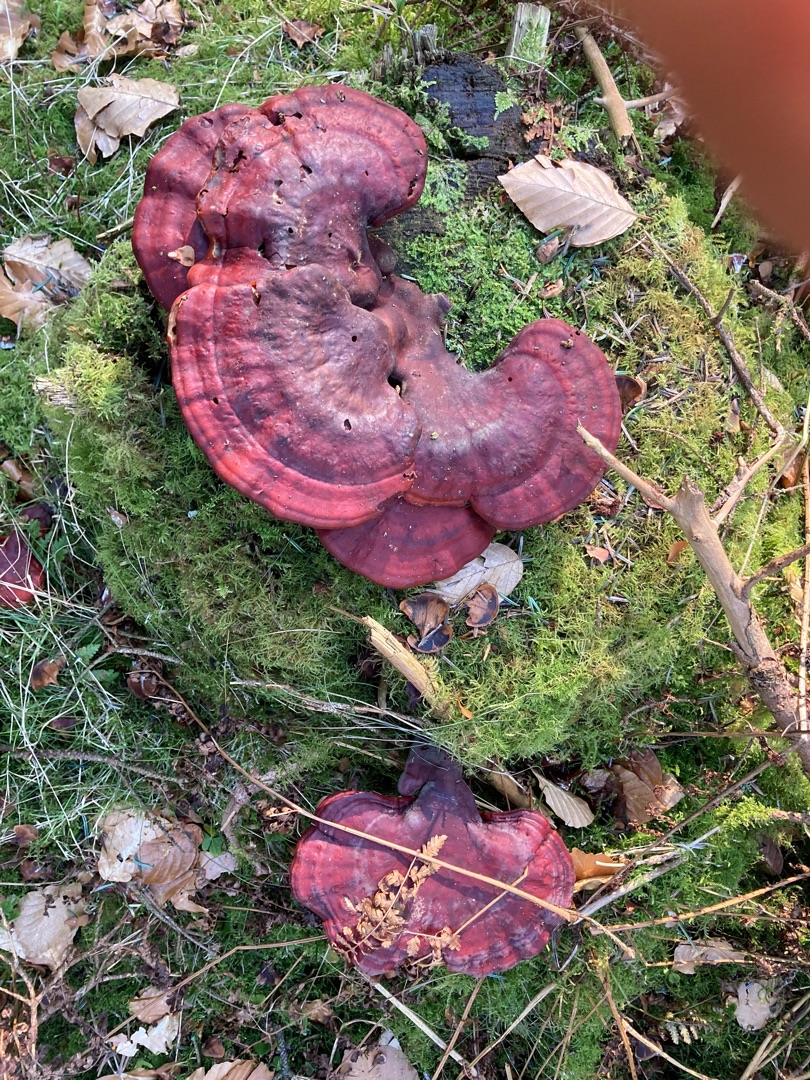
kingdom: Fungi
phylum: Basidiomycota
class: Agaricomycetes
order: Polyporales
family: Polyporaceae
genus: Ganoderma
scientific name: Ganoderma lucidum
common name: Skinnende lakporesvamp
